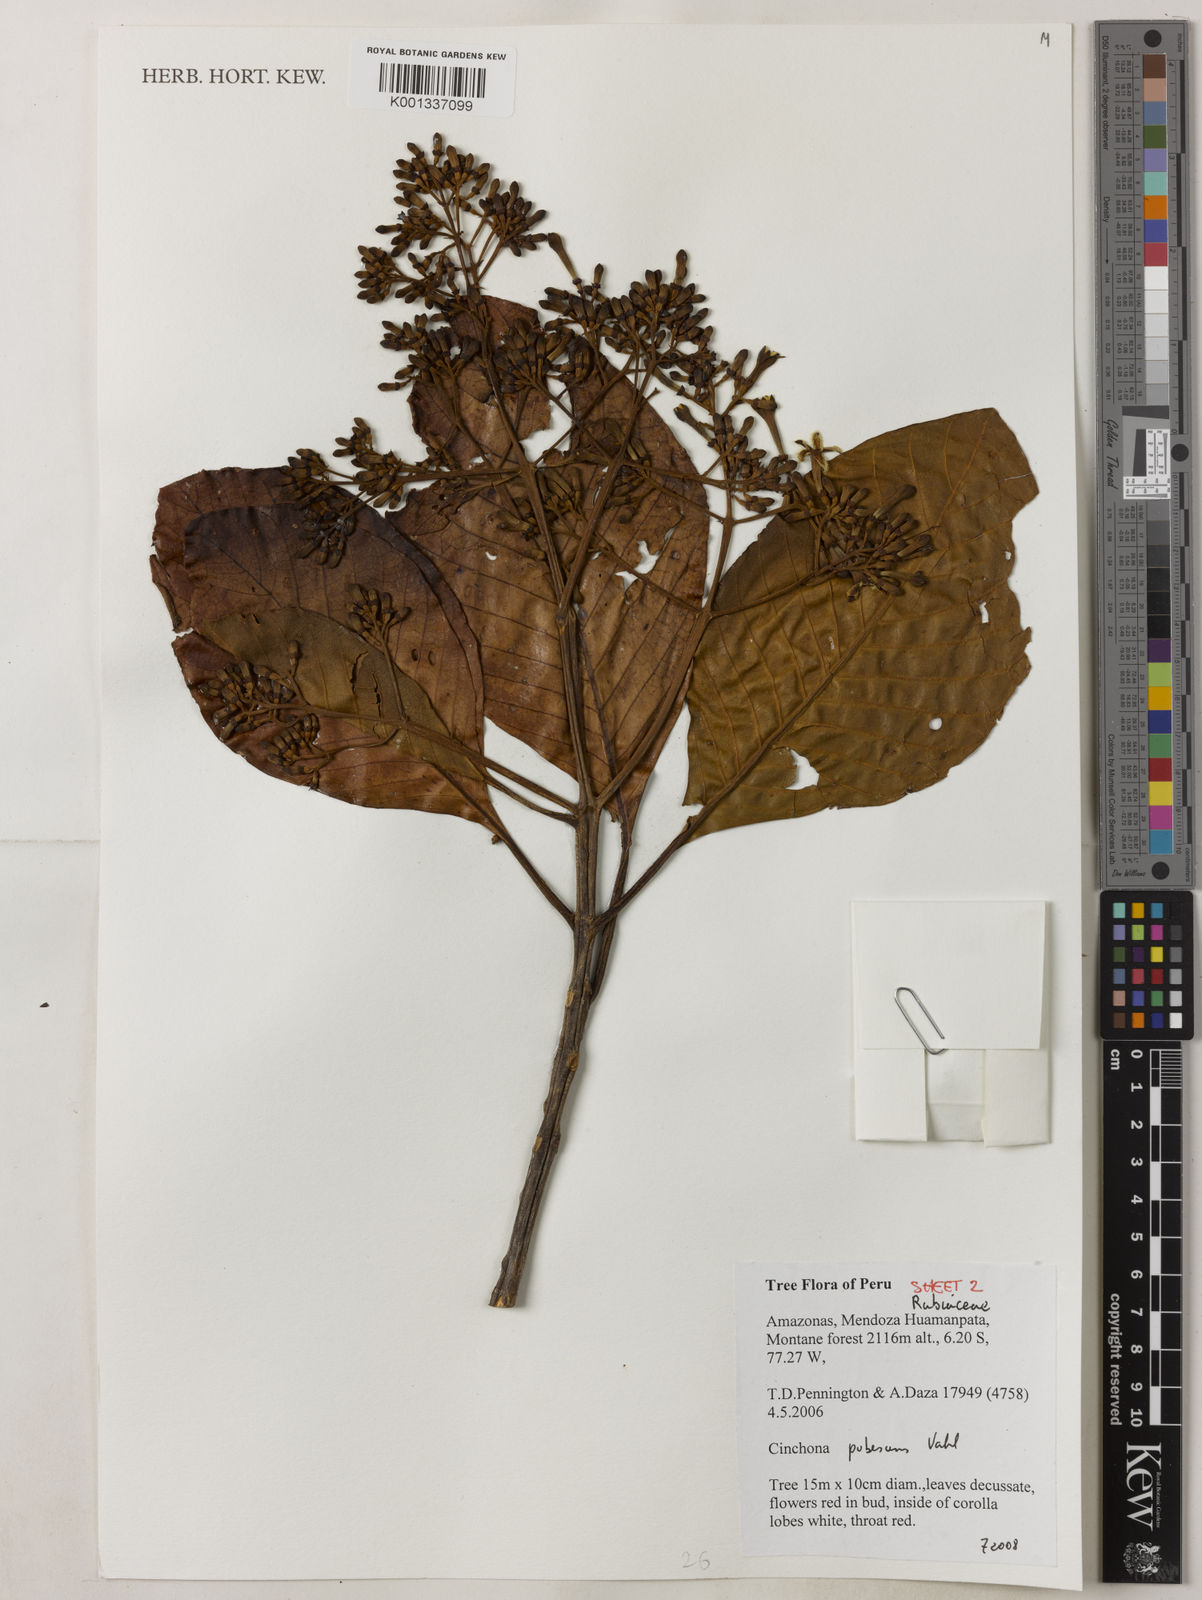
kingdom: Plantae
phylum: Tracheophyta
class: Magnoliopsida
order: Gentianales
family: Rubiaceae
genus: Cinchona
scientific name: Cinchona pubescens
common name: Quinine
